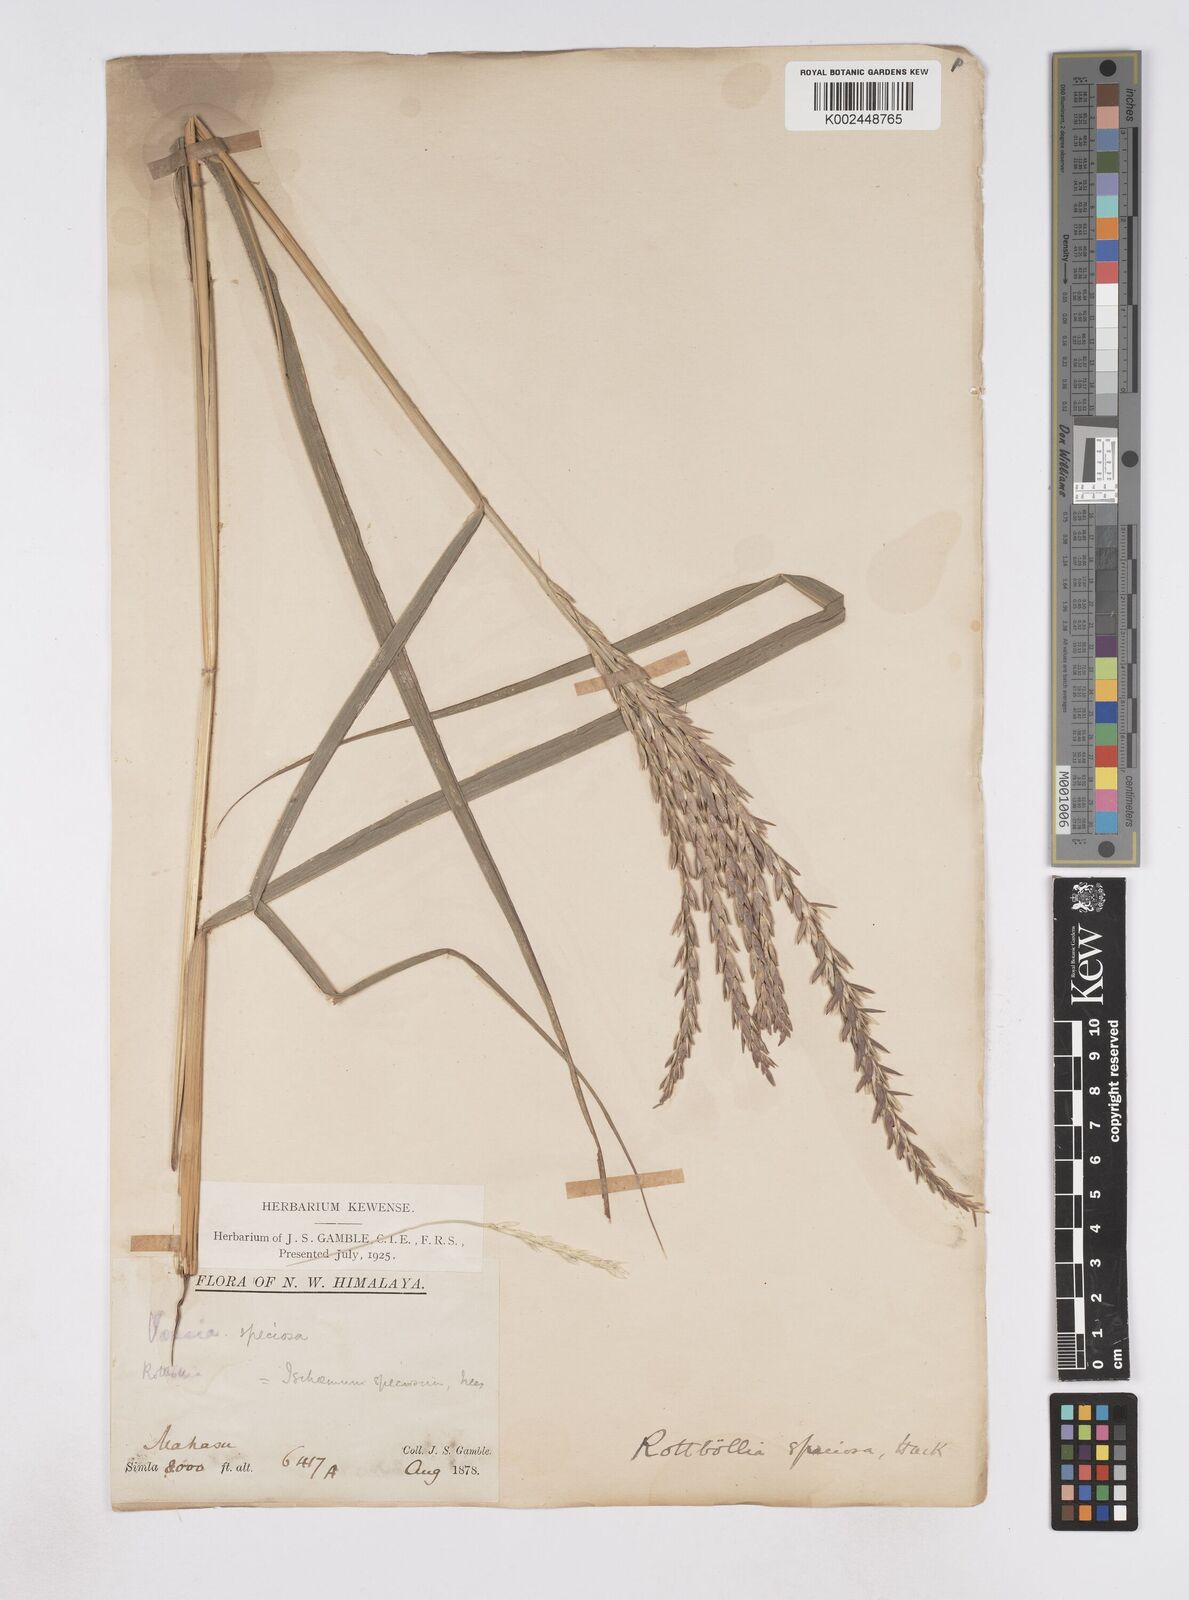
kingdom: Plantae
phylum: Tracheophyta
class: Liliopsida
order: Poales
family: Poaceae
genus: Phacelurus
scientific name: Phacelurus speciosus
